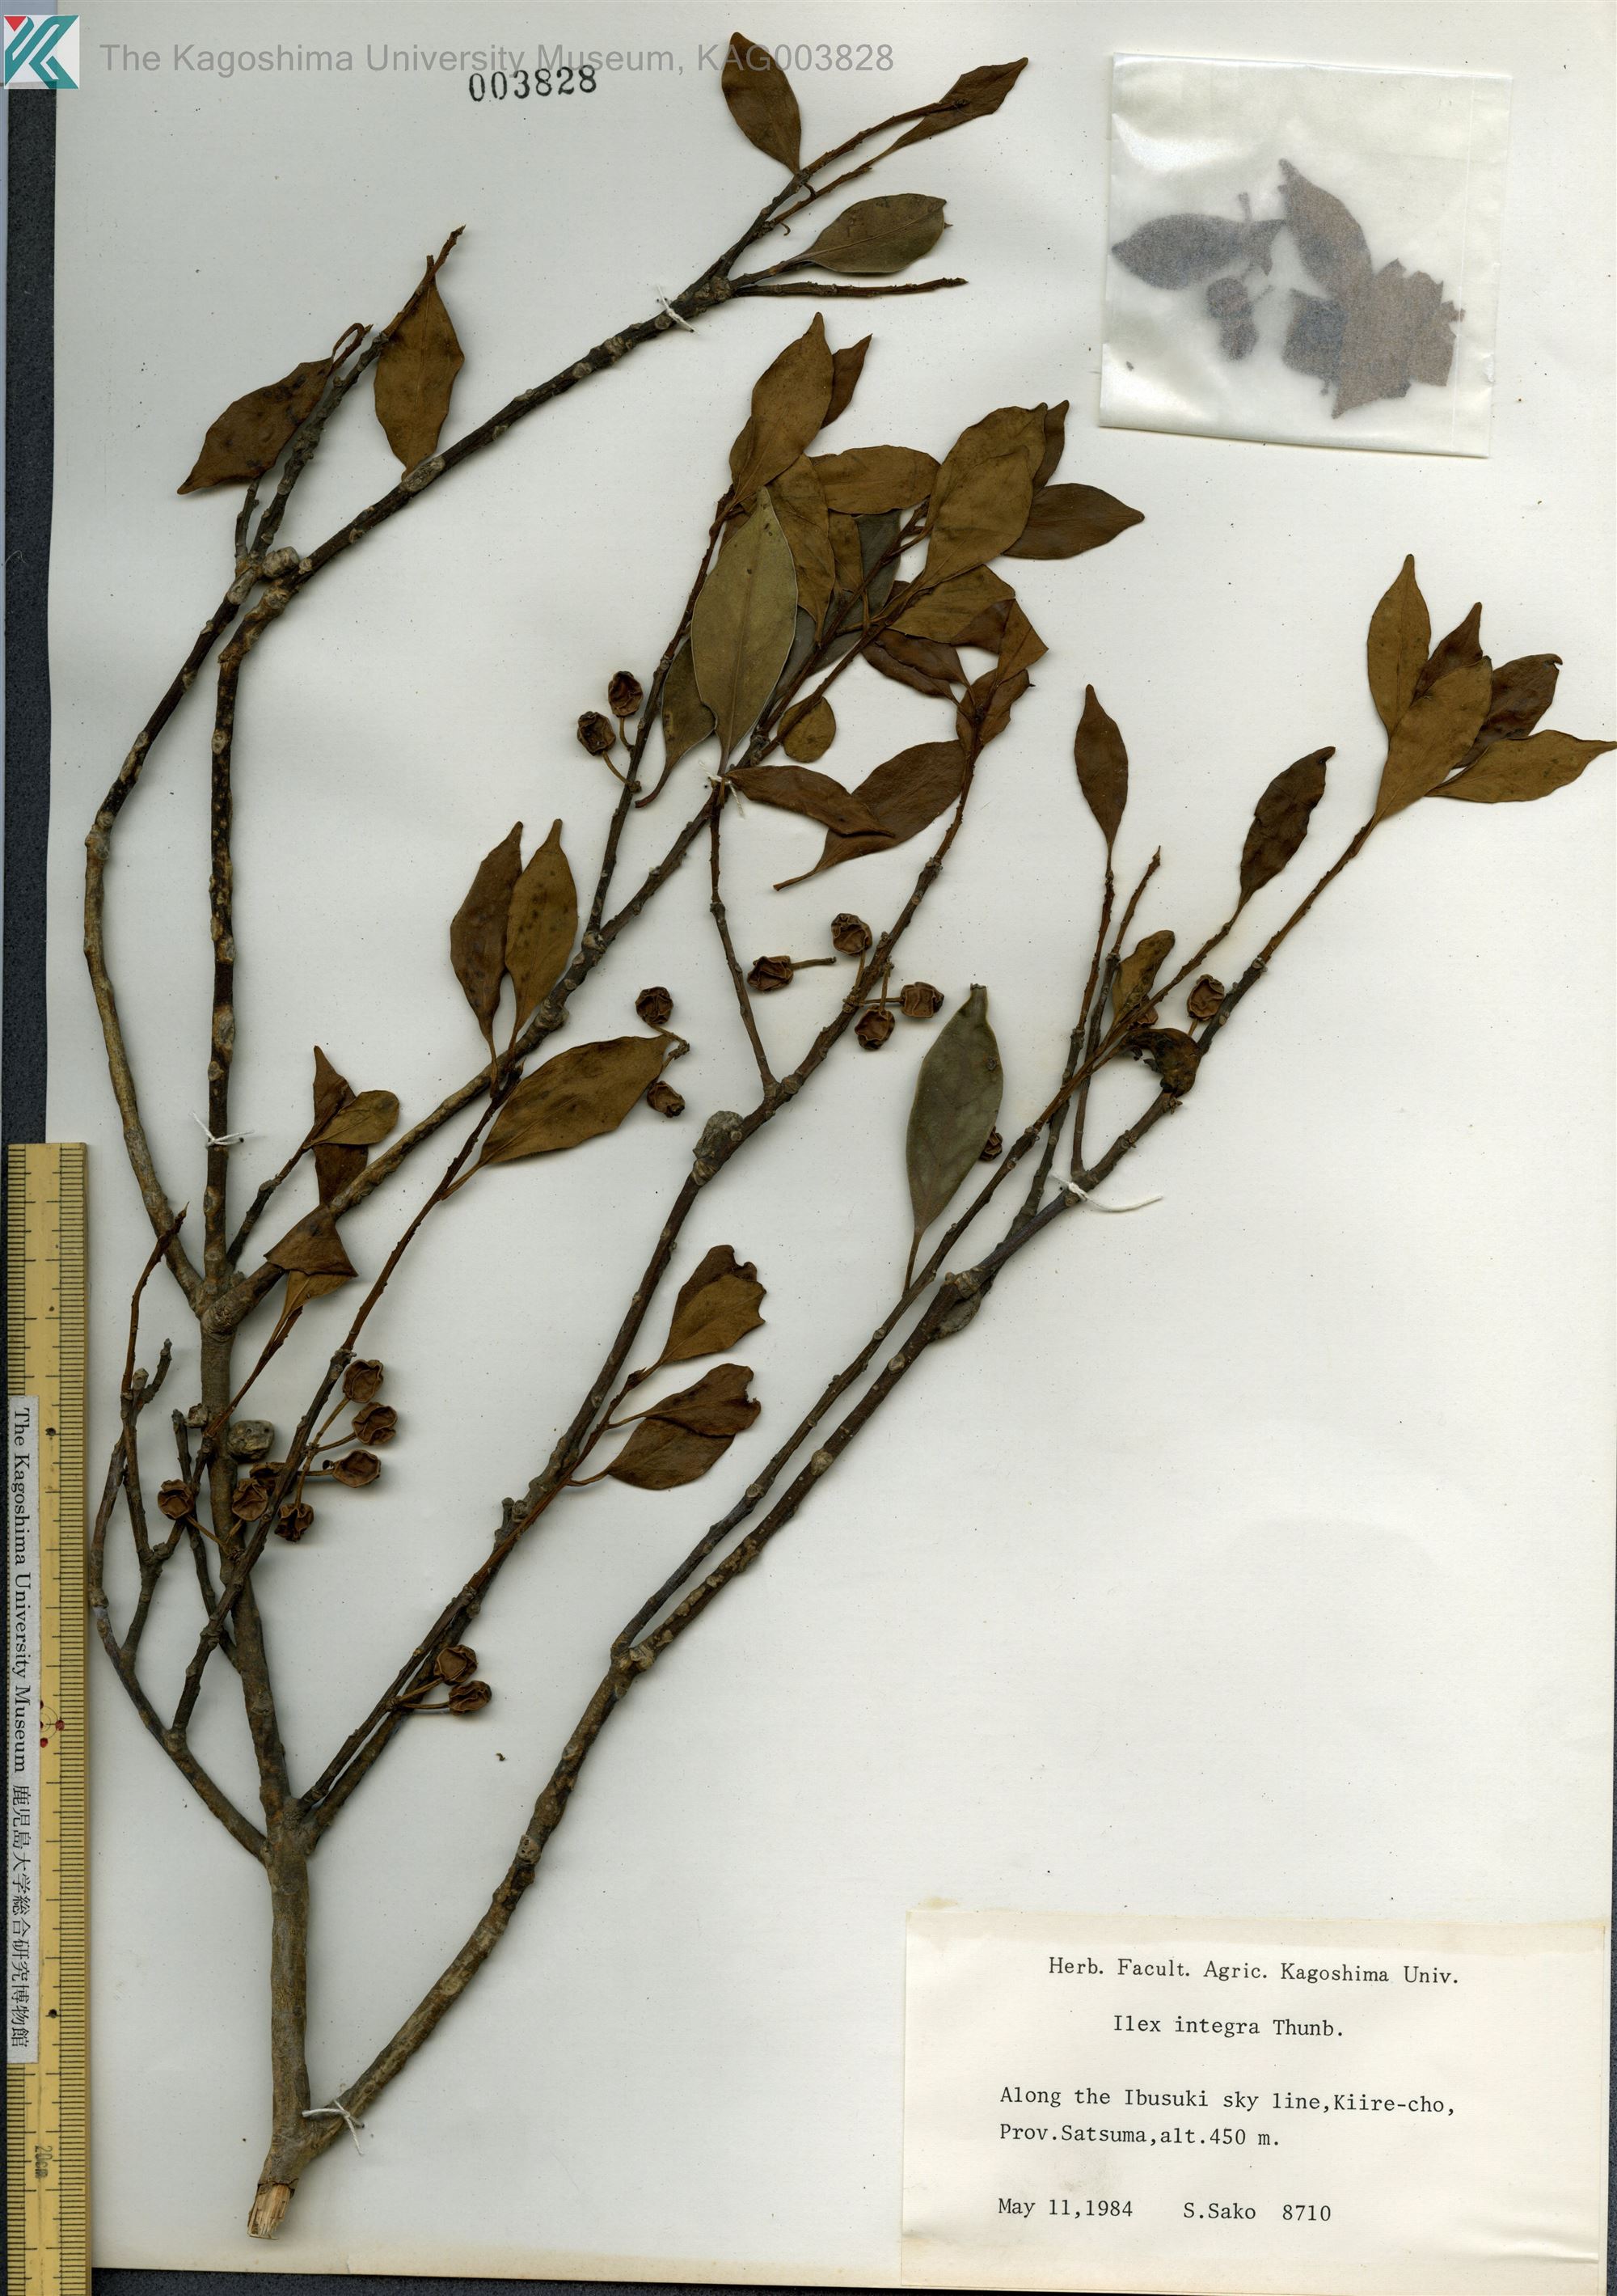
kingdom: Plantae
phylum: Tracheophyta
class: Magnoliopsida
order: Aquifoliales
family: Aquifoliaceae
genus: Ilex
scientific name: Ilex integra
